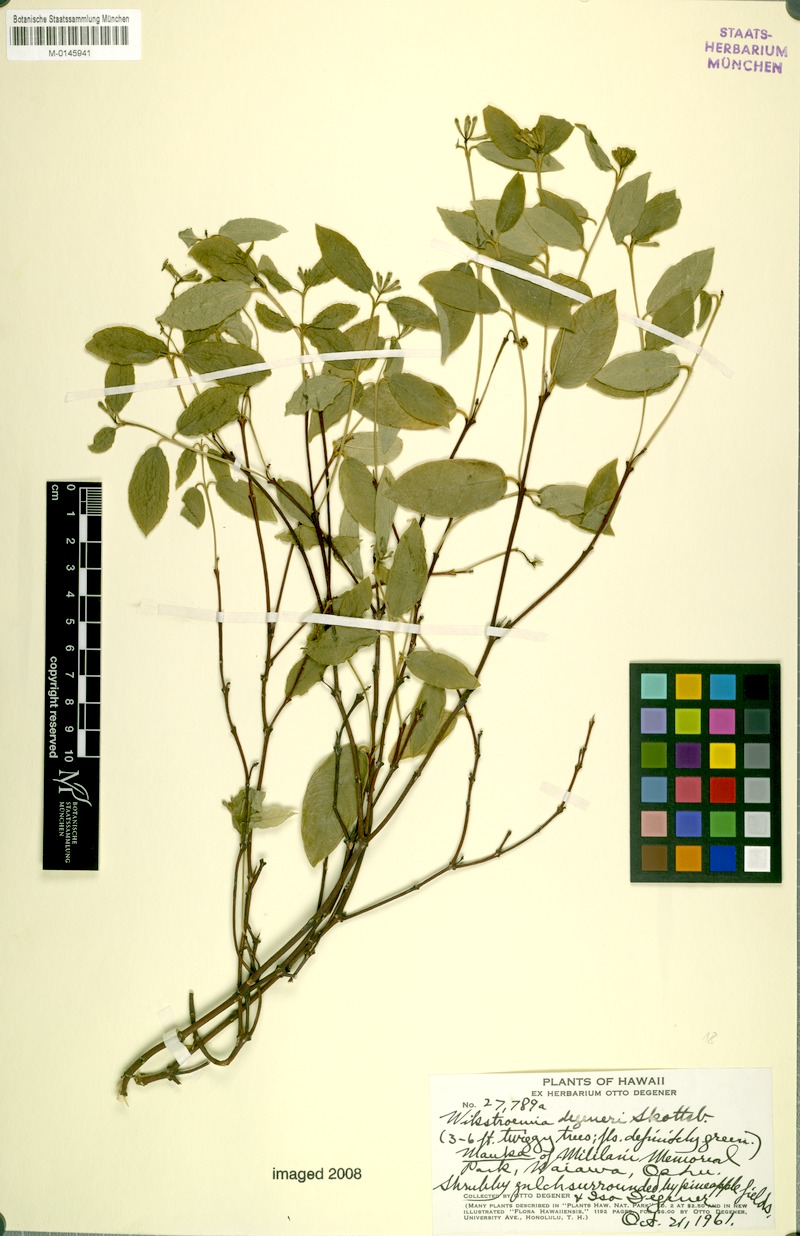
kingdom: Plantae
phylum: Tracheophyta
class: Magnoliopsida
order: Malvales
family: Thymelaeaceae
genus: Wikstroemia
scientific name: Wikstroemia oahuensis
